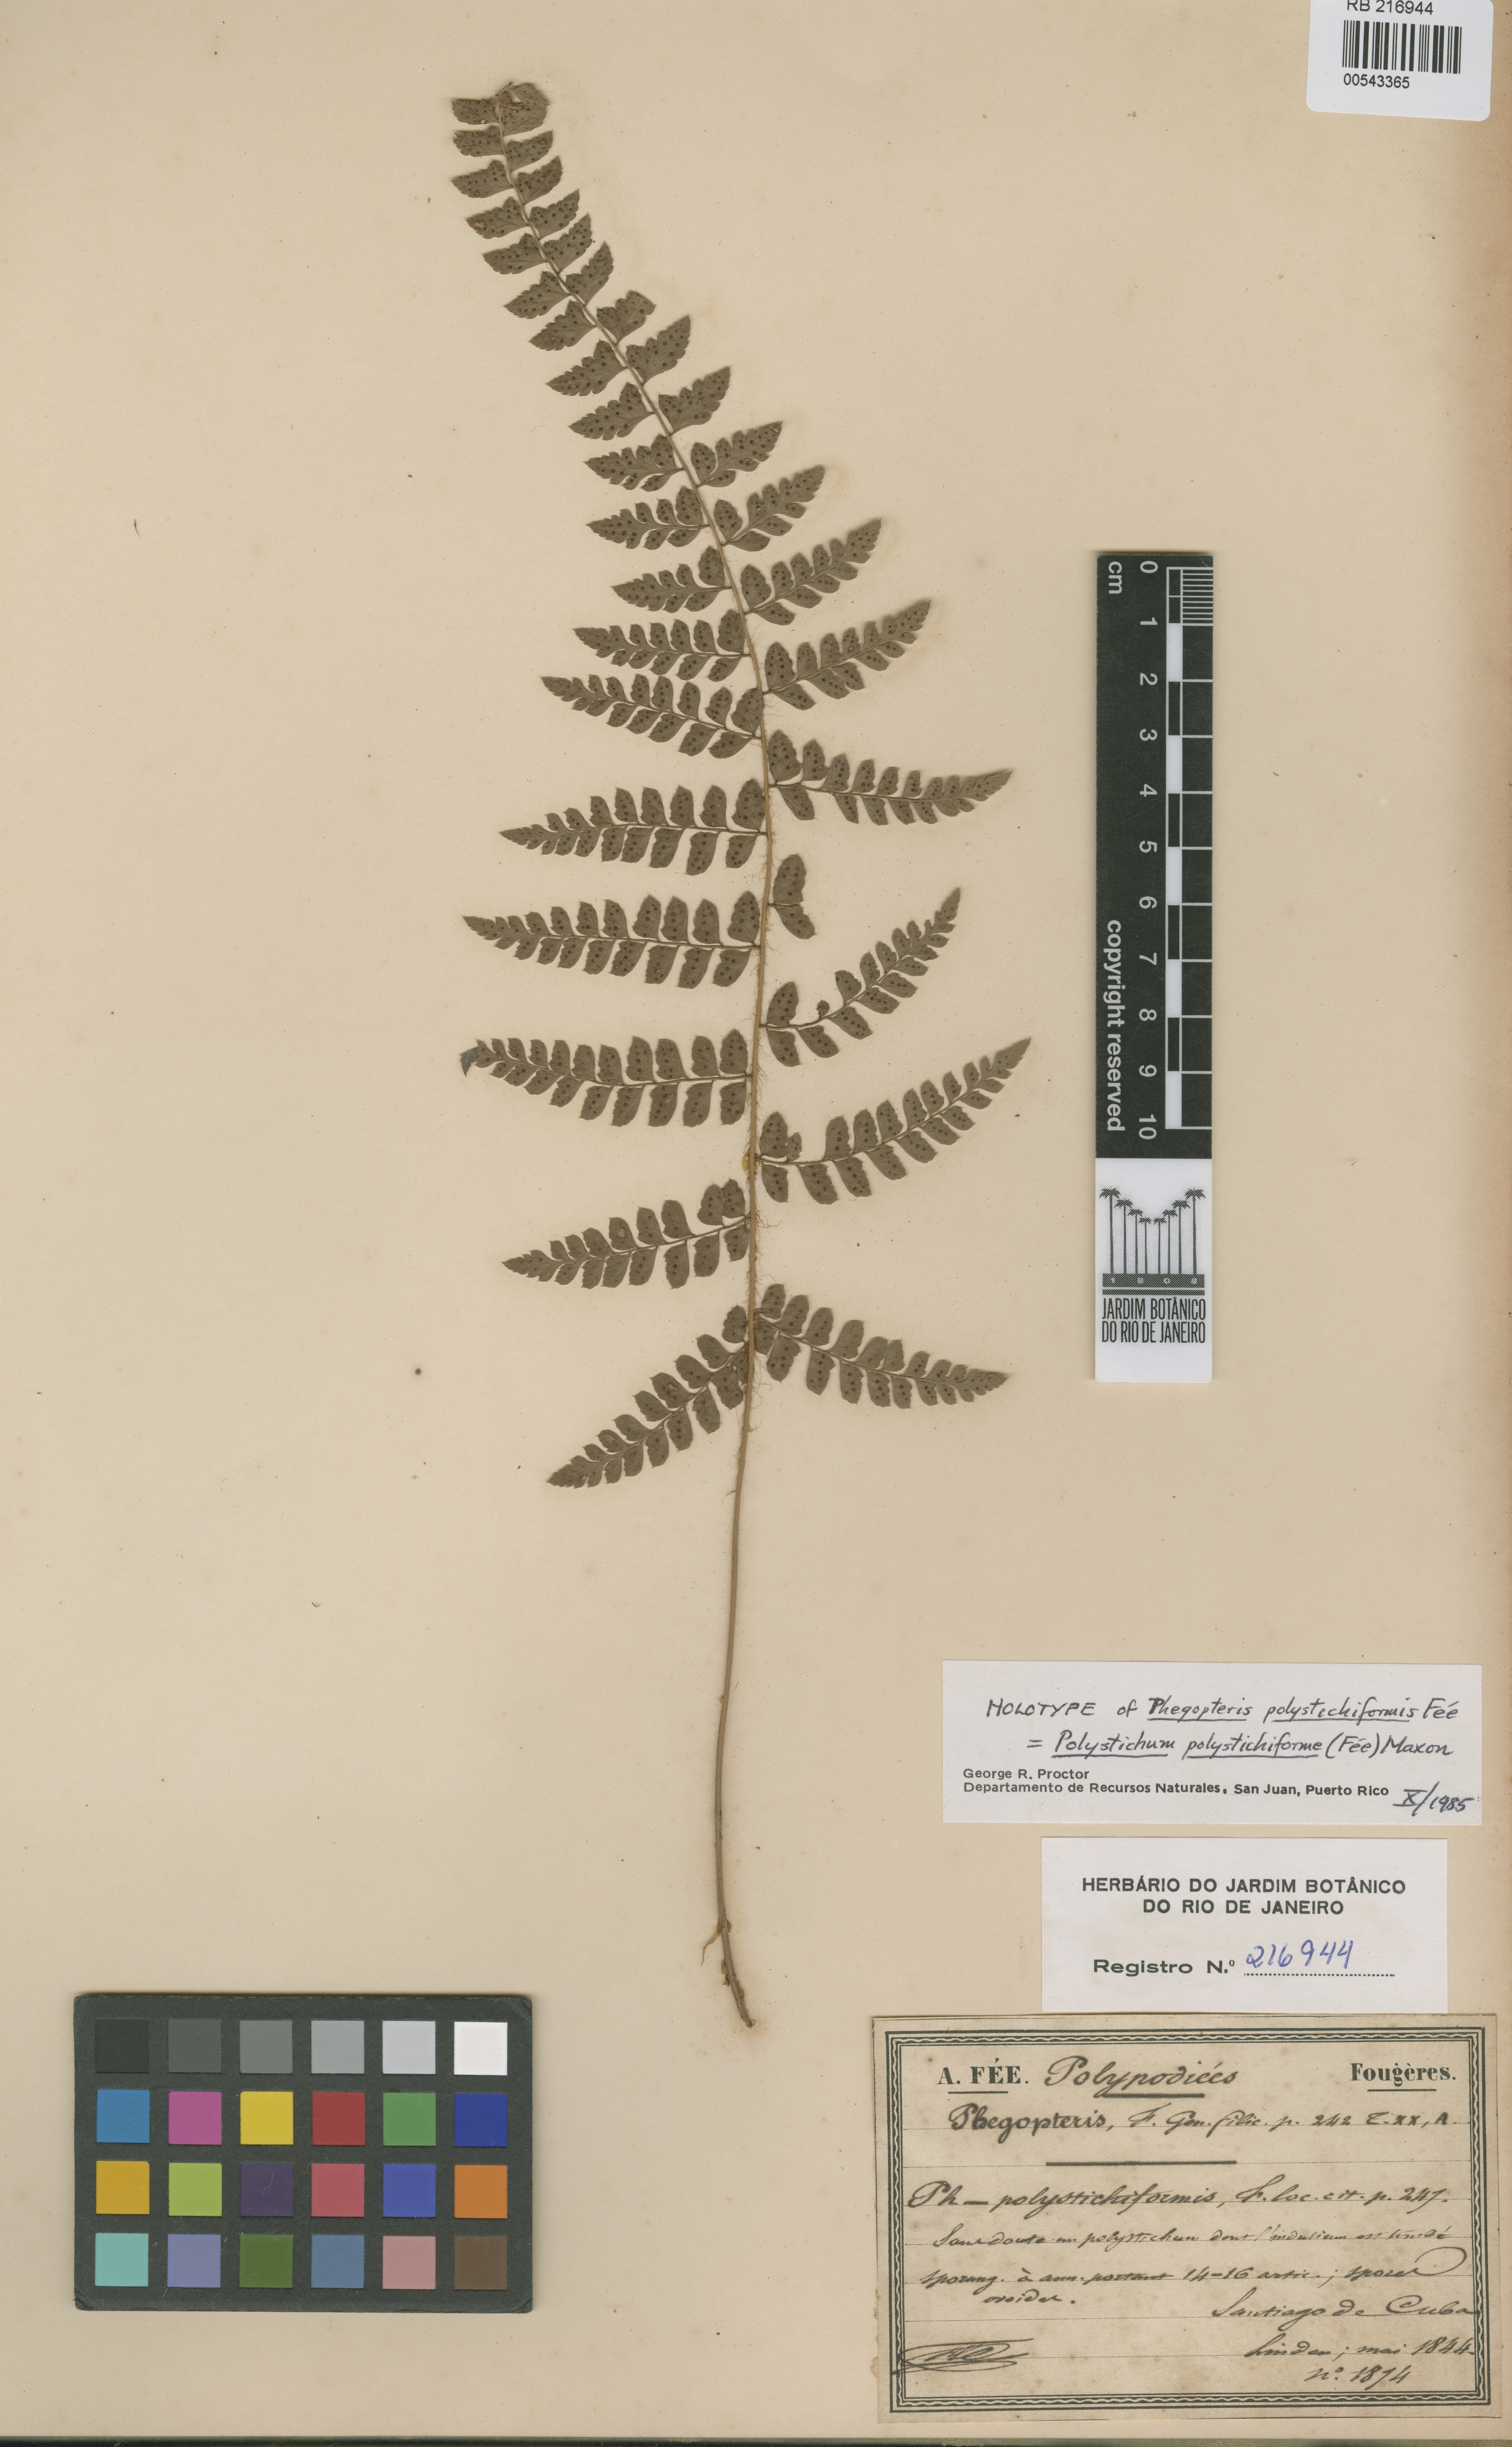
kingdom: Plantae
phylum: Tracheophyta
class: Polypodiopsida
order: Polypodiales
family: Dryopteridaceae
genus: Polystichum
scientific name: Polystichum platyphyllum
